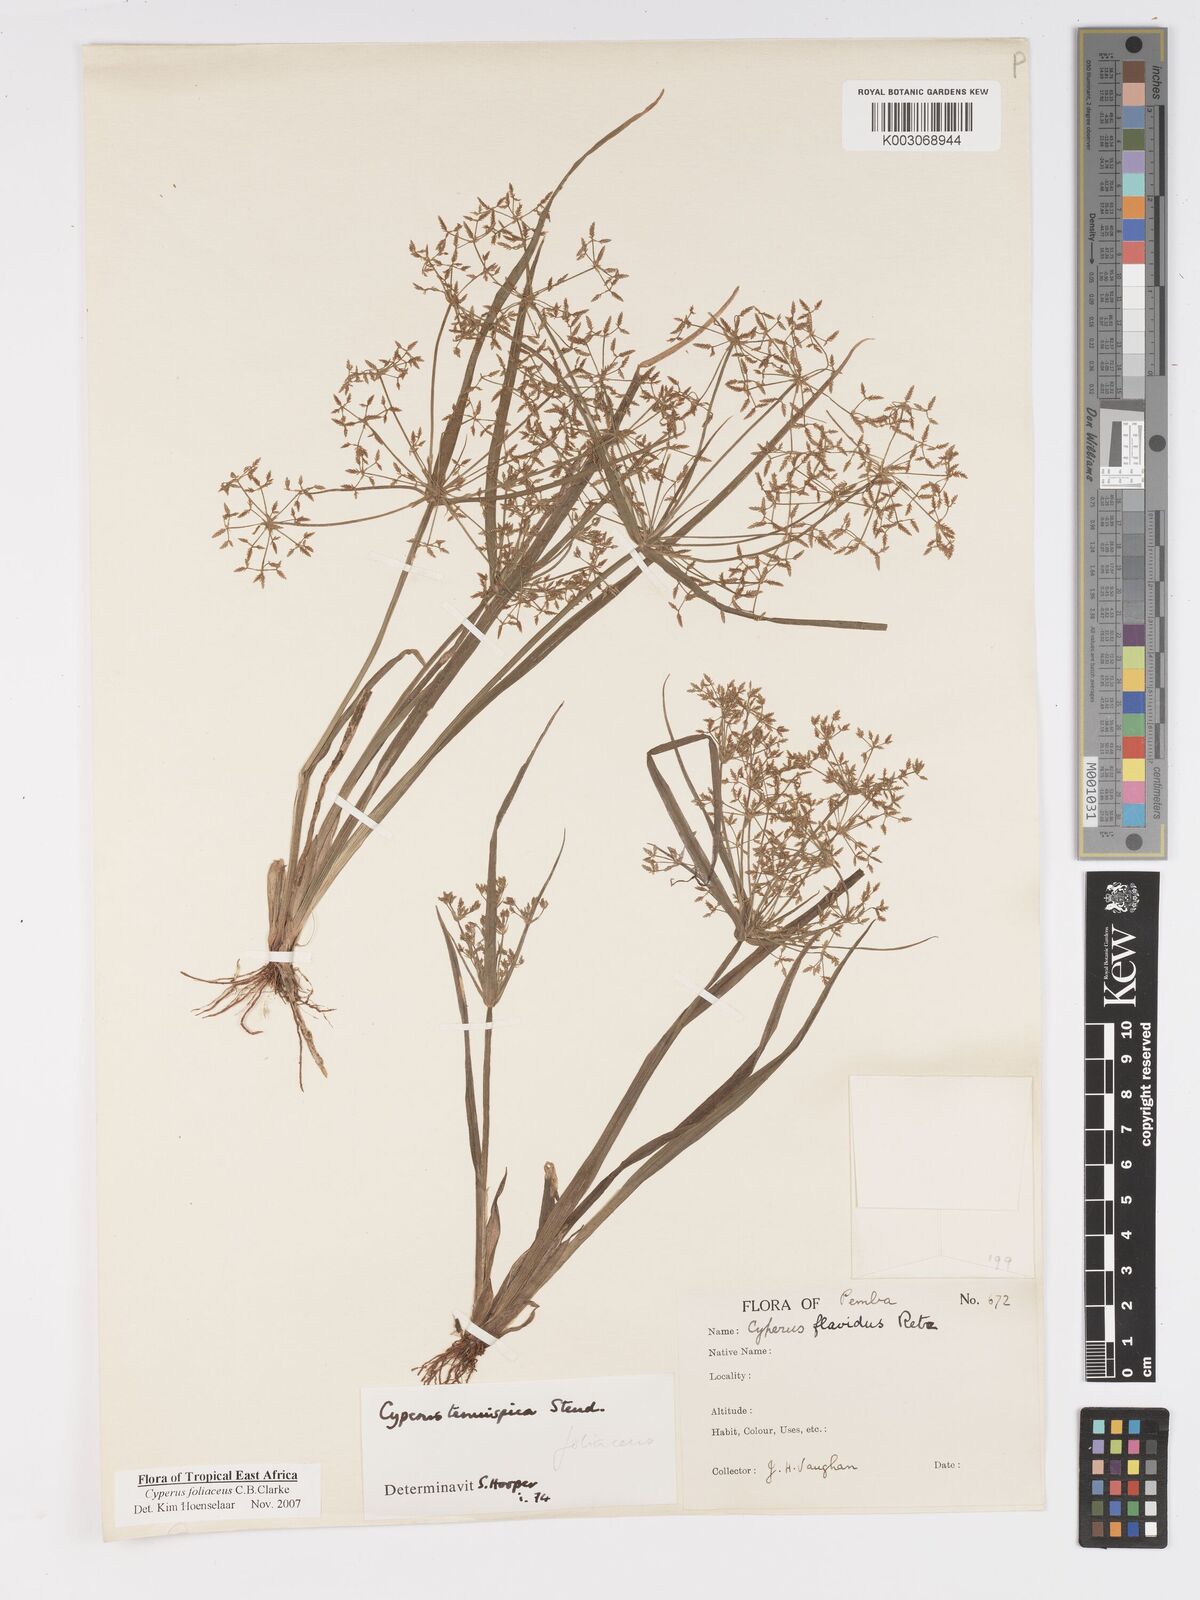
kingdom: Plantae
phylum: Tracheophyta
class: Liliopsida
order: Poales
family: Cyperaceae
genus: Cyperus
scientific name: Cyperus tenuispica
